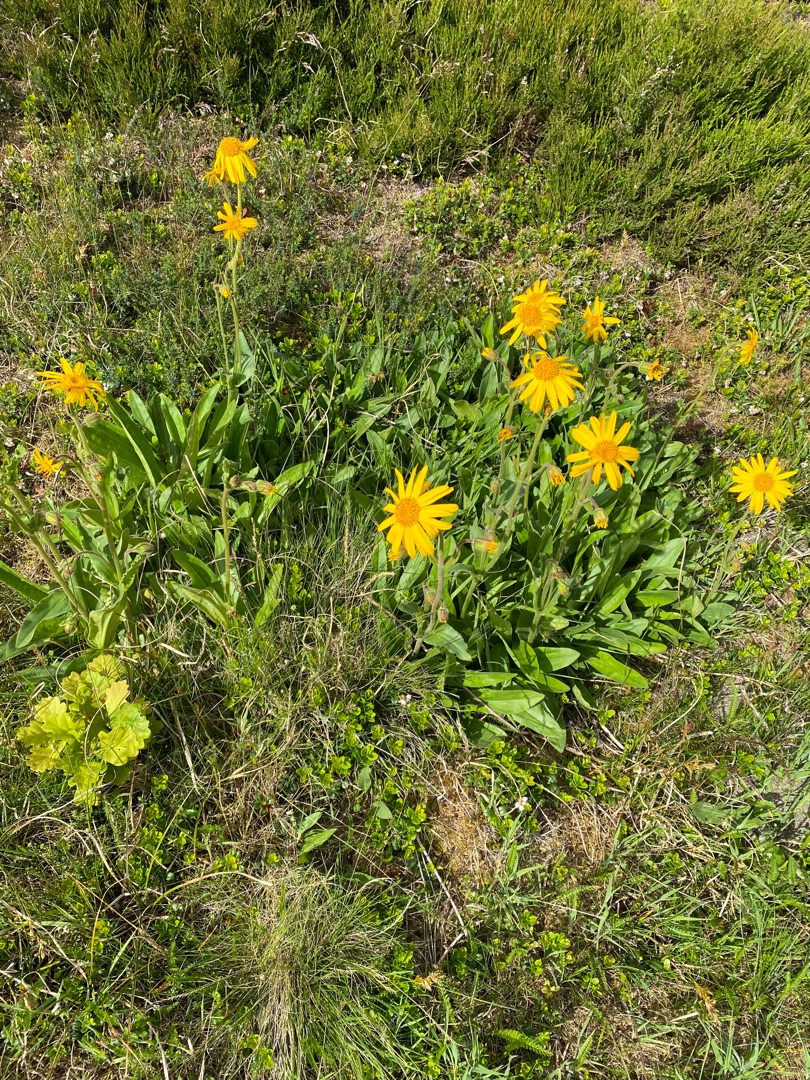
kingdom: Plantae
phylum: Tracheophyta
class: Magnoliopsida
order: Asterales
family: Asteraceae
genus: Arnica
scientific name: Arnica montana
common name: Guldblomme
